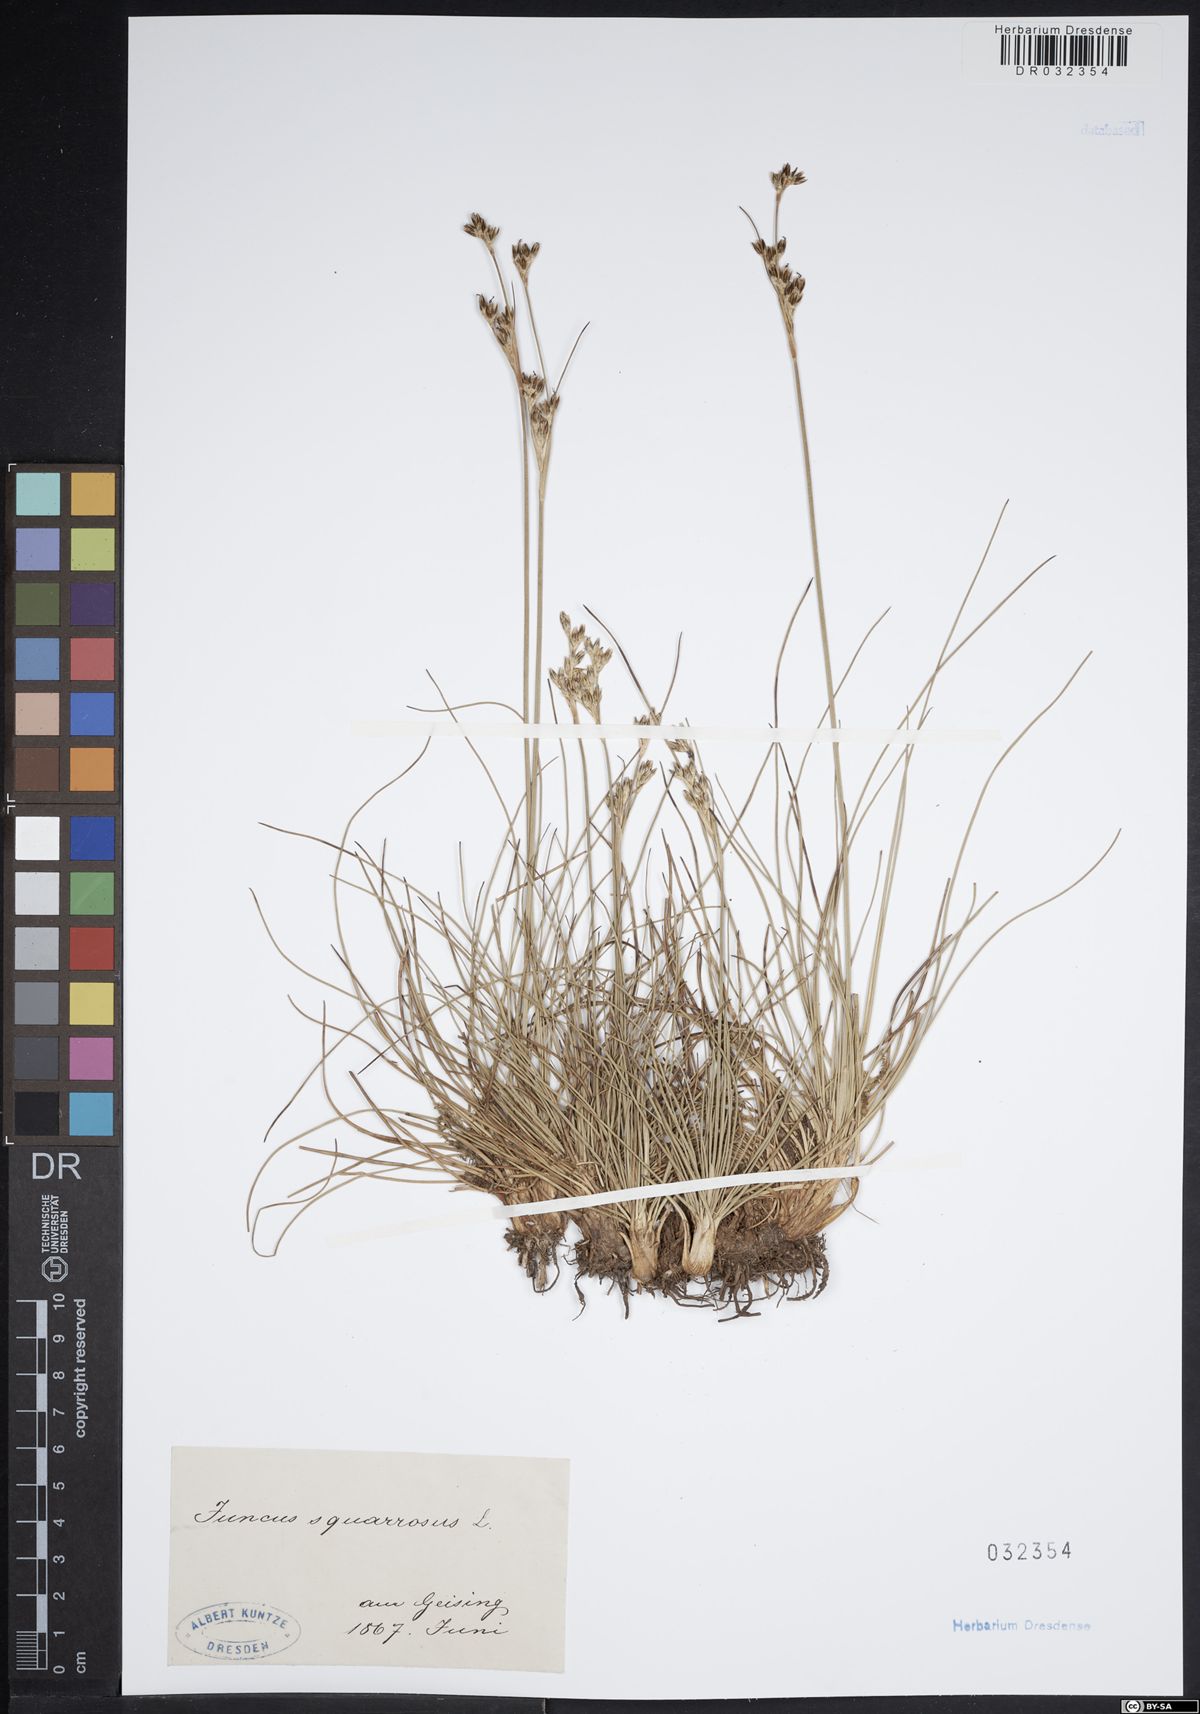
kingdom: Plantae
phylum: Tracheophyta
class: Liliopsida
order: Poales
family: Juncaceae
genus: Juncus
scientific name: Juncus squarrosus
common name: Heath rush
